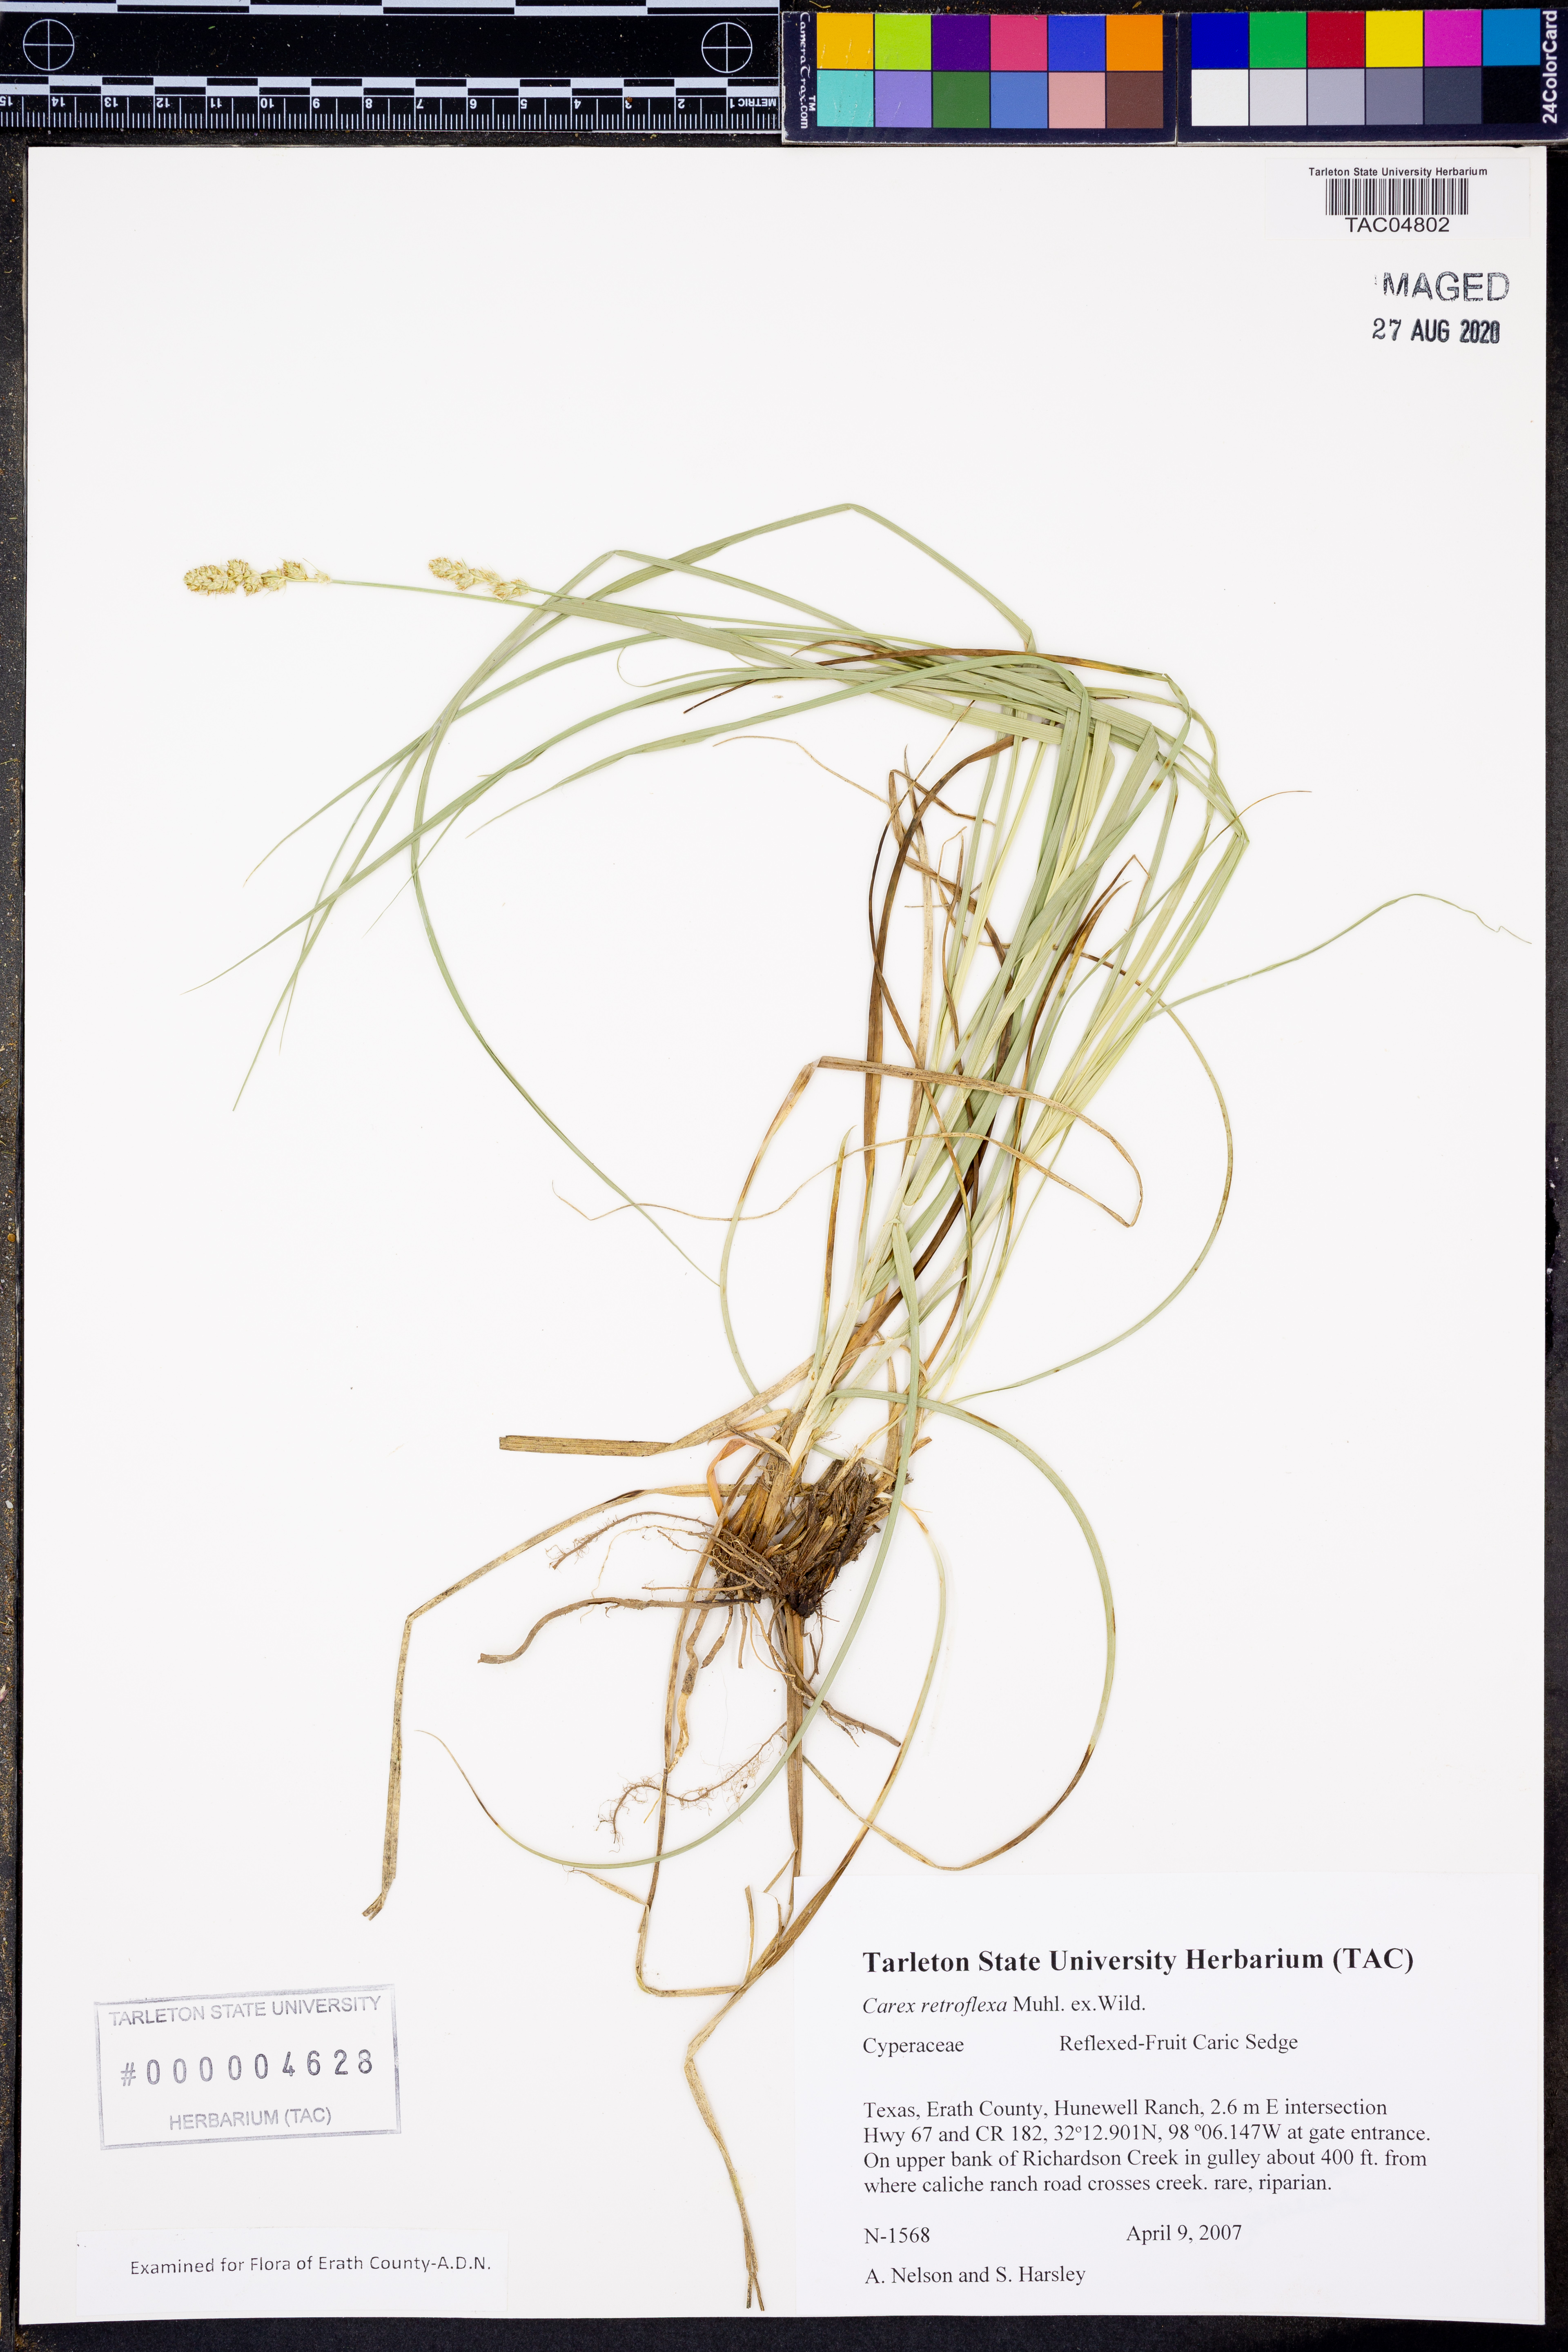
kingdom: Plantae
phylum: Tracheophyta
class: Liliopsida
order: Poales
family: Cyperaceae
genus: Carex
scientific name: Carex retroflexa
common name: Reflexed sedge
